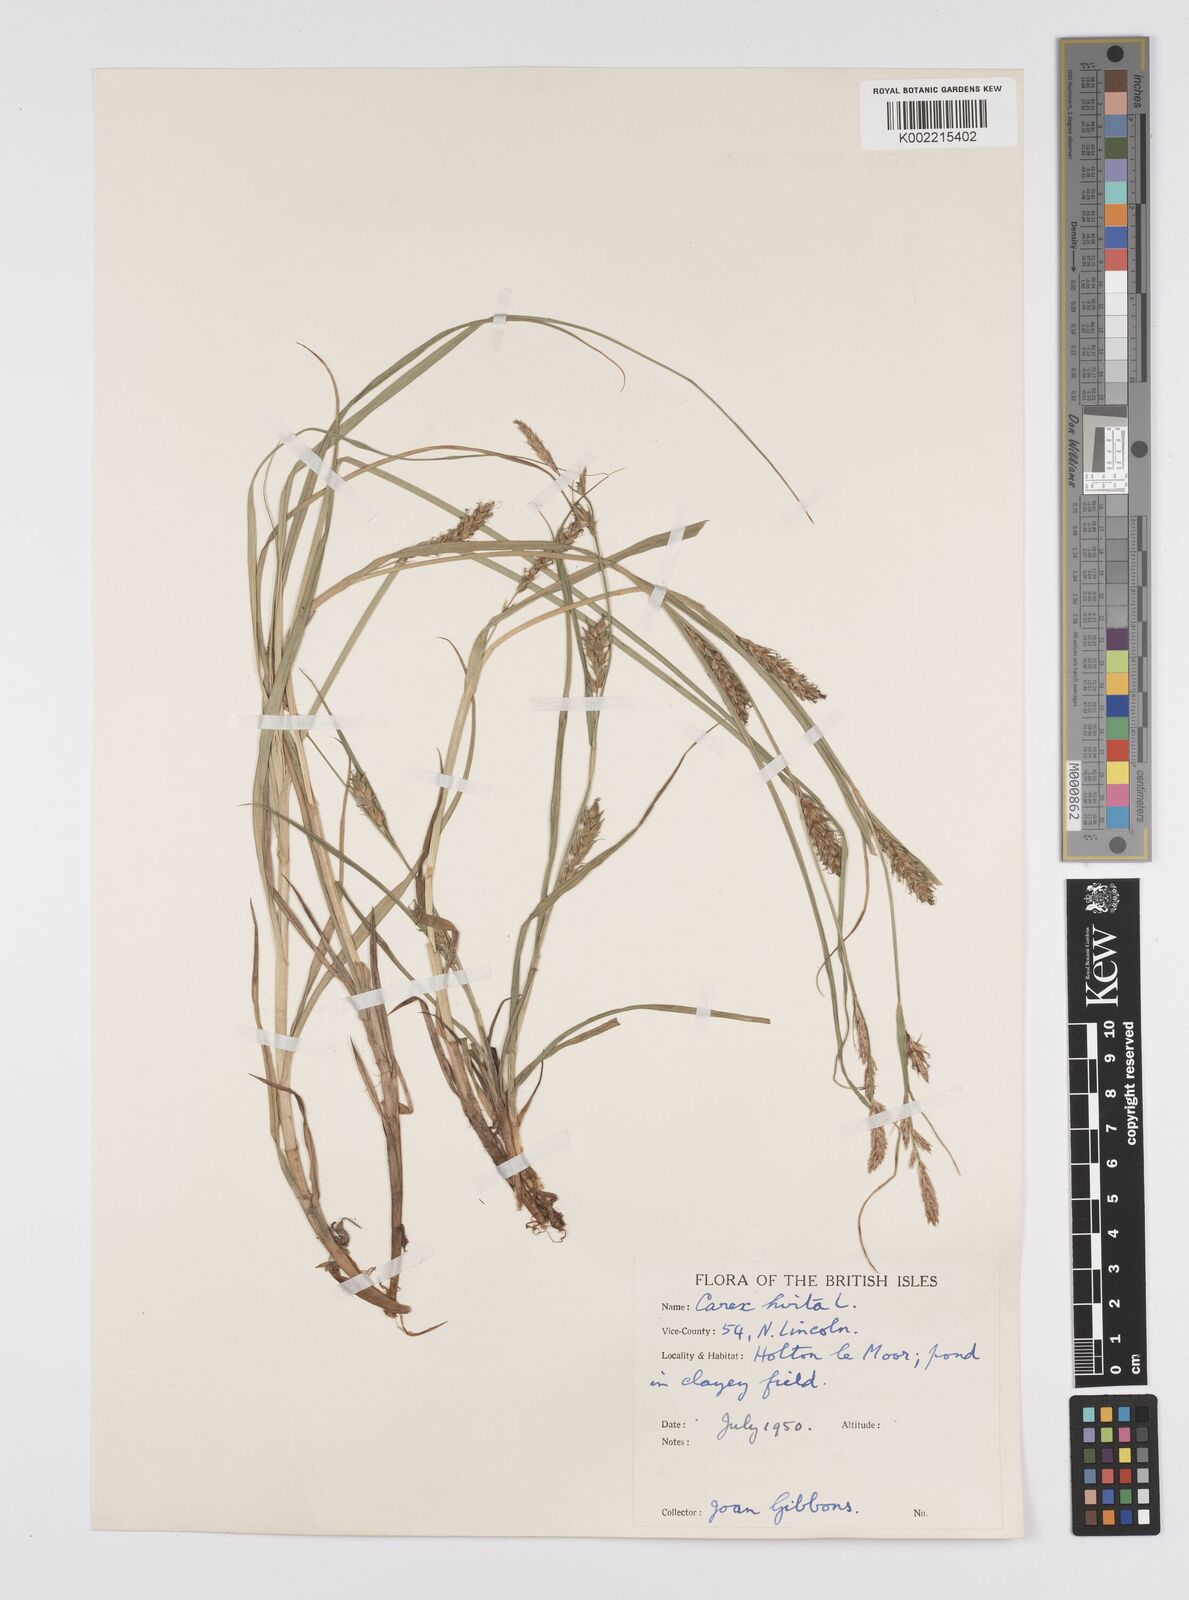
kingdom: Plantae
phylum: Tracheophyta
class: Liliopsida
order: Poales
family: Cyperaceae
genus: Carex
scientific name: Carex hirta
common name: Hairy sedge
